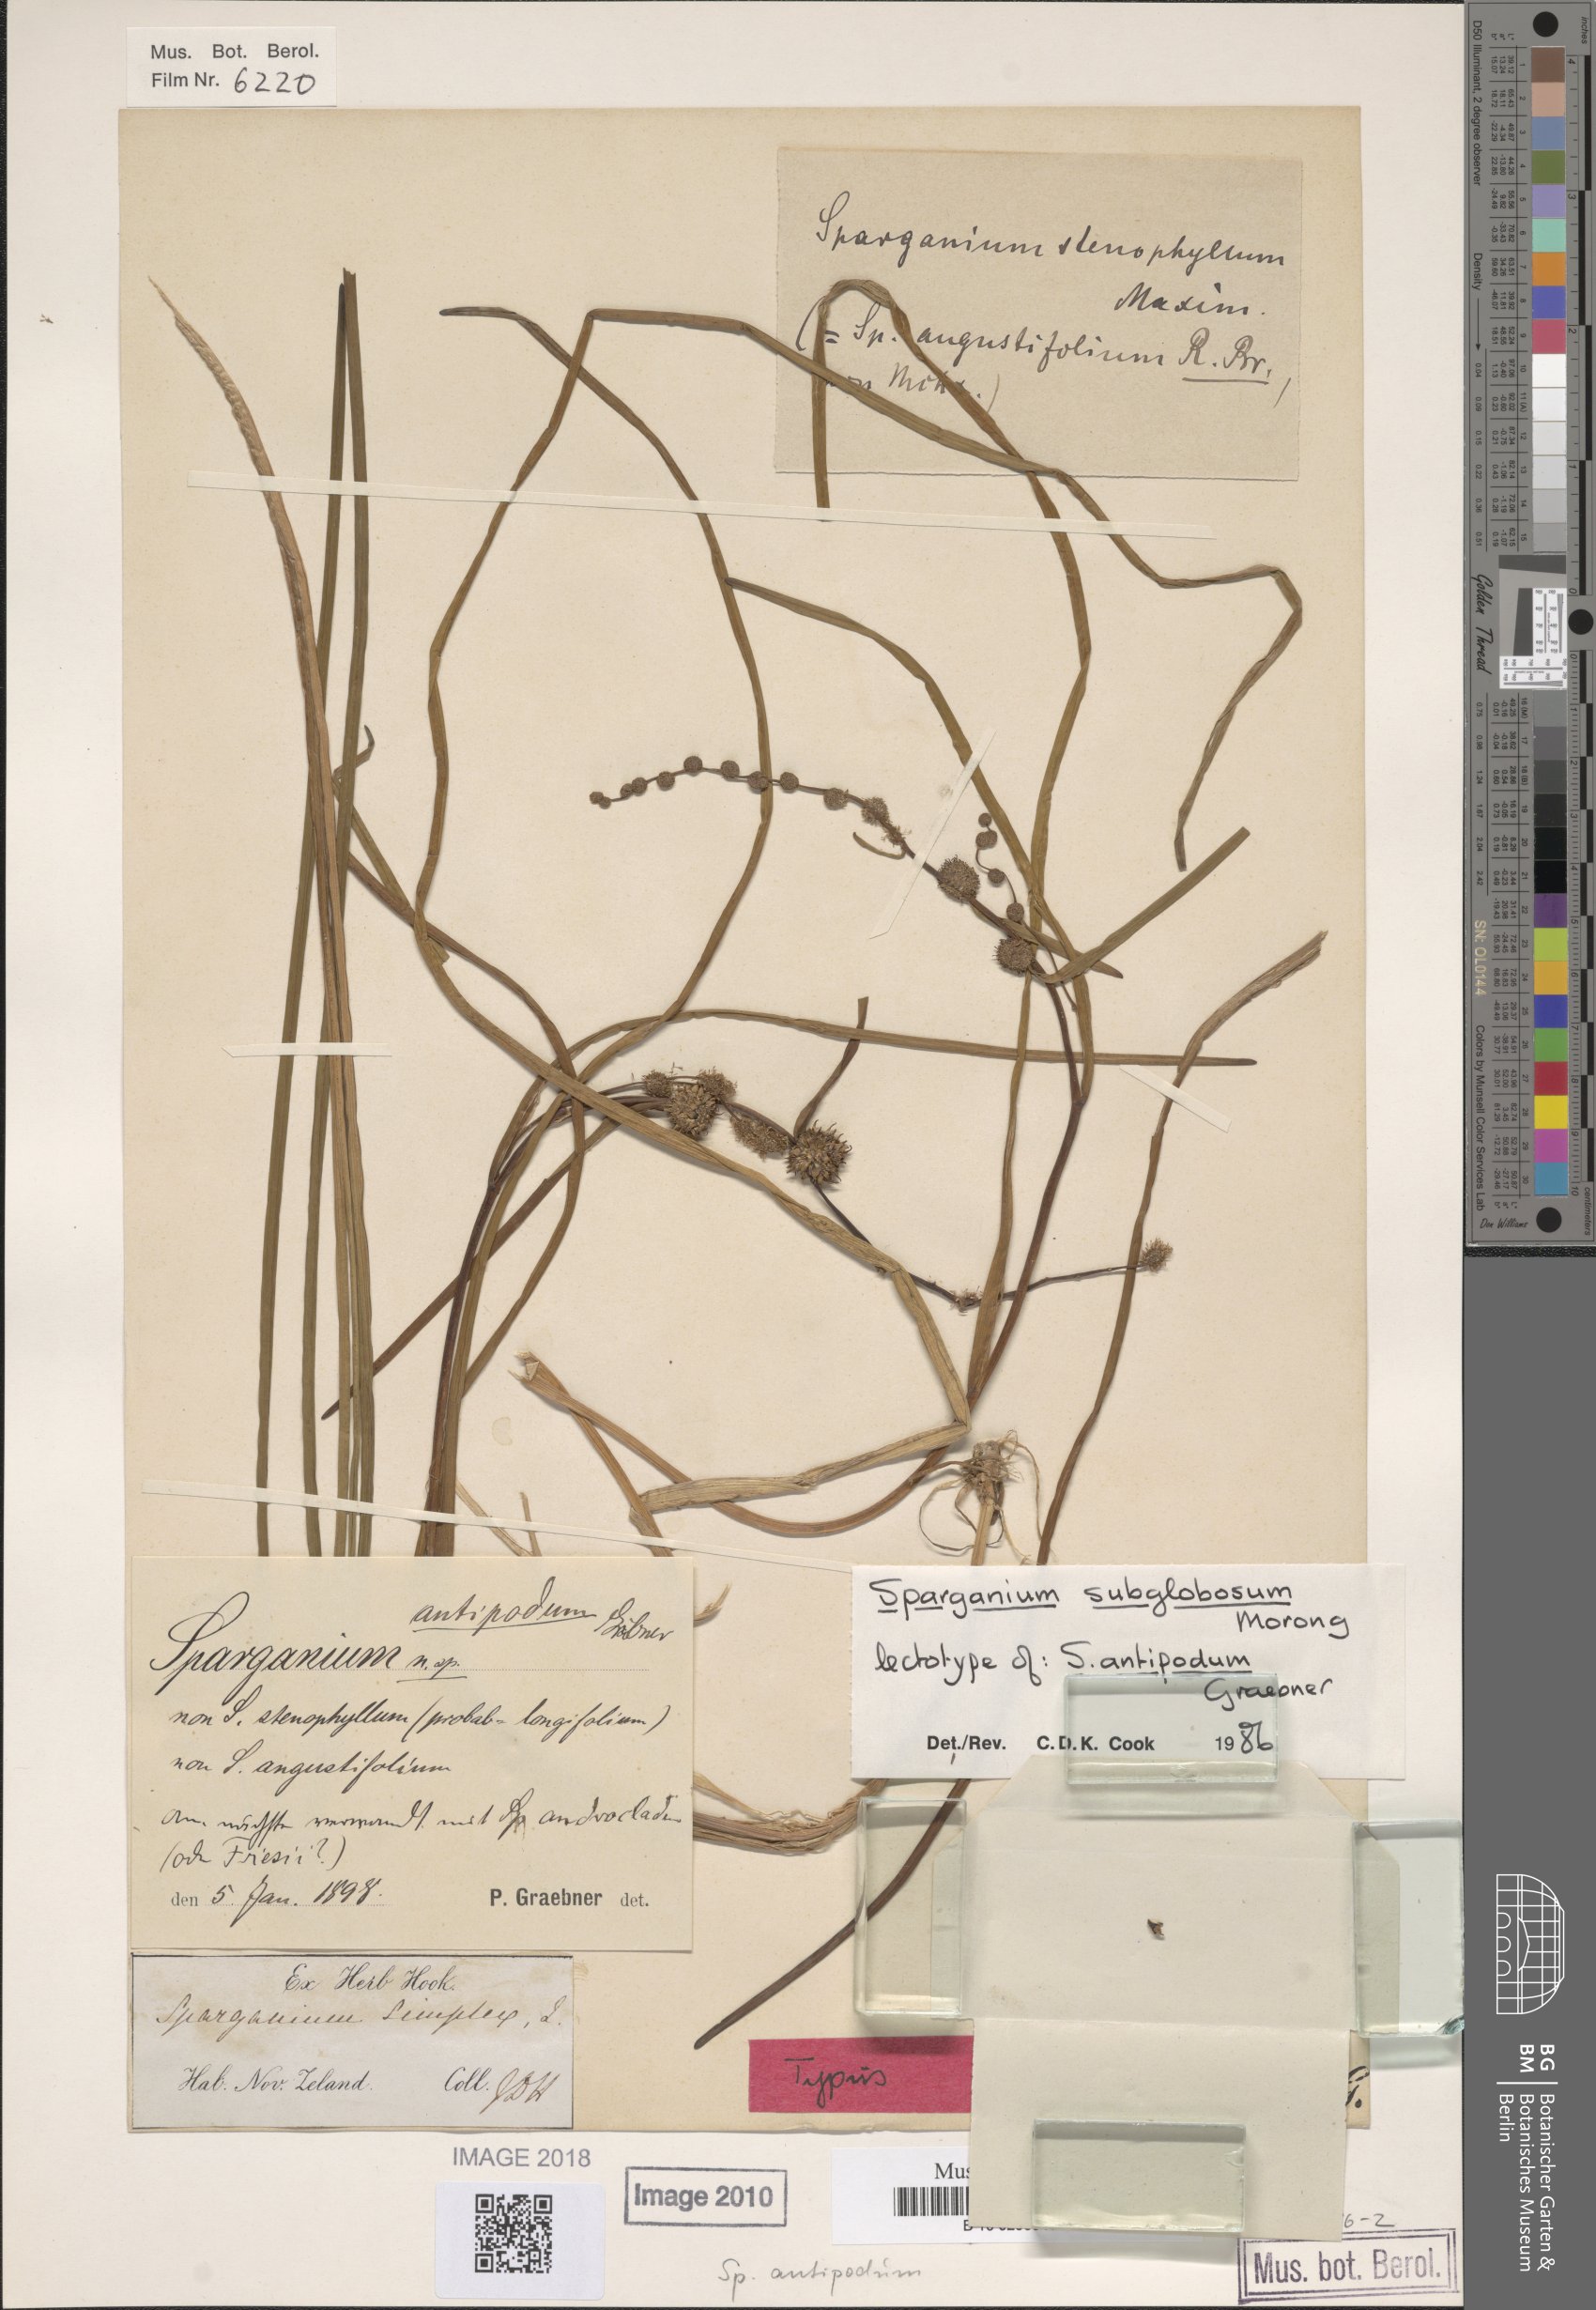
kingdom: Plantae
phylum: Tracheophyta
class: Liliopsida
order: Poales
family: Typhaceae
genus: Sparganium
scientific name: Sparganium subglobosum
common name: Burr­-reed
